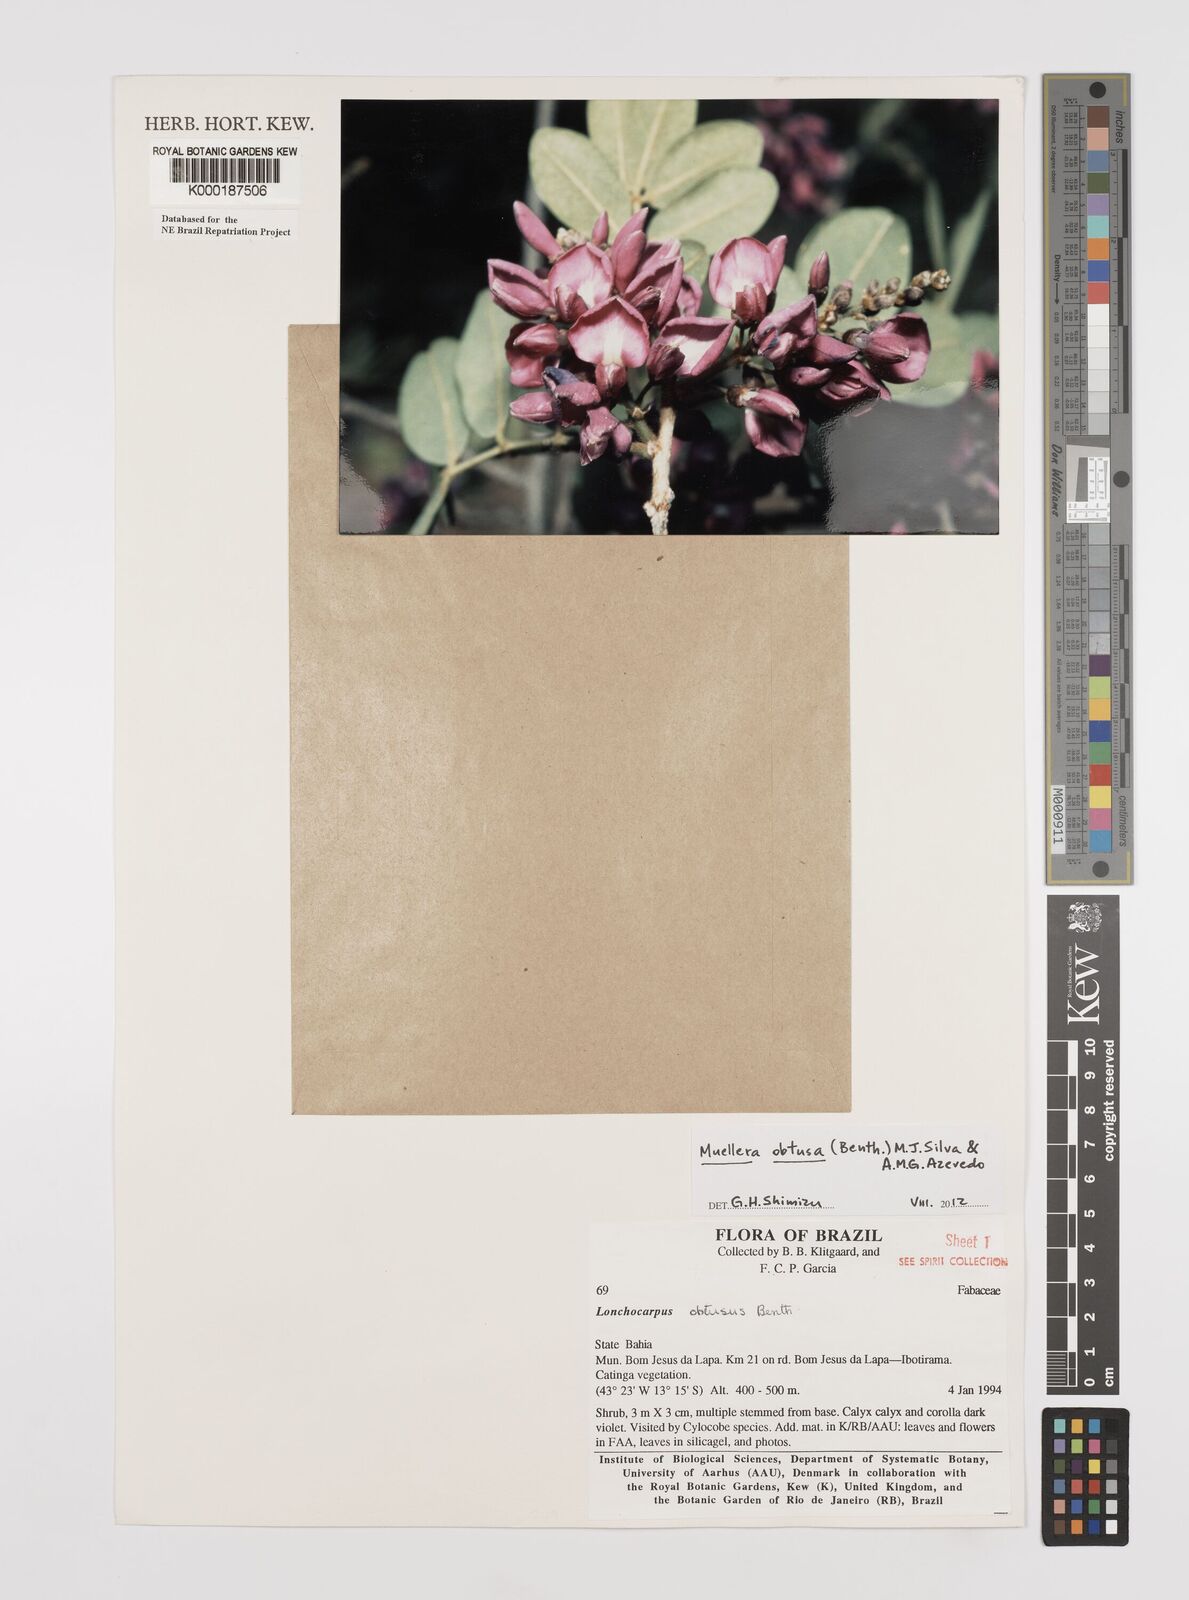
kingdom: Plantae
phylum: Tracheophyta
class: Magnoliopsida
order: Fabales
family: Fabaceae
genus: Muellera
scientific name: Muellera obtusa
